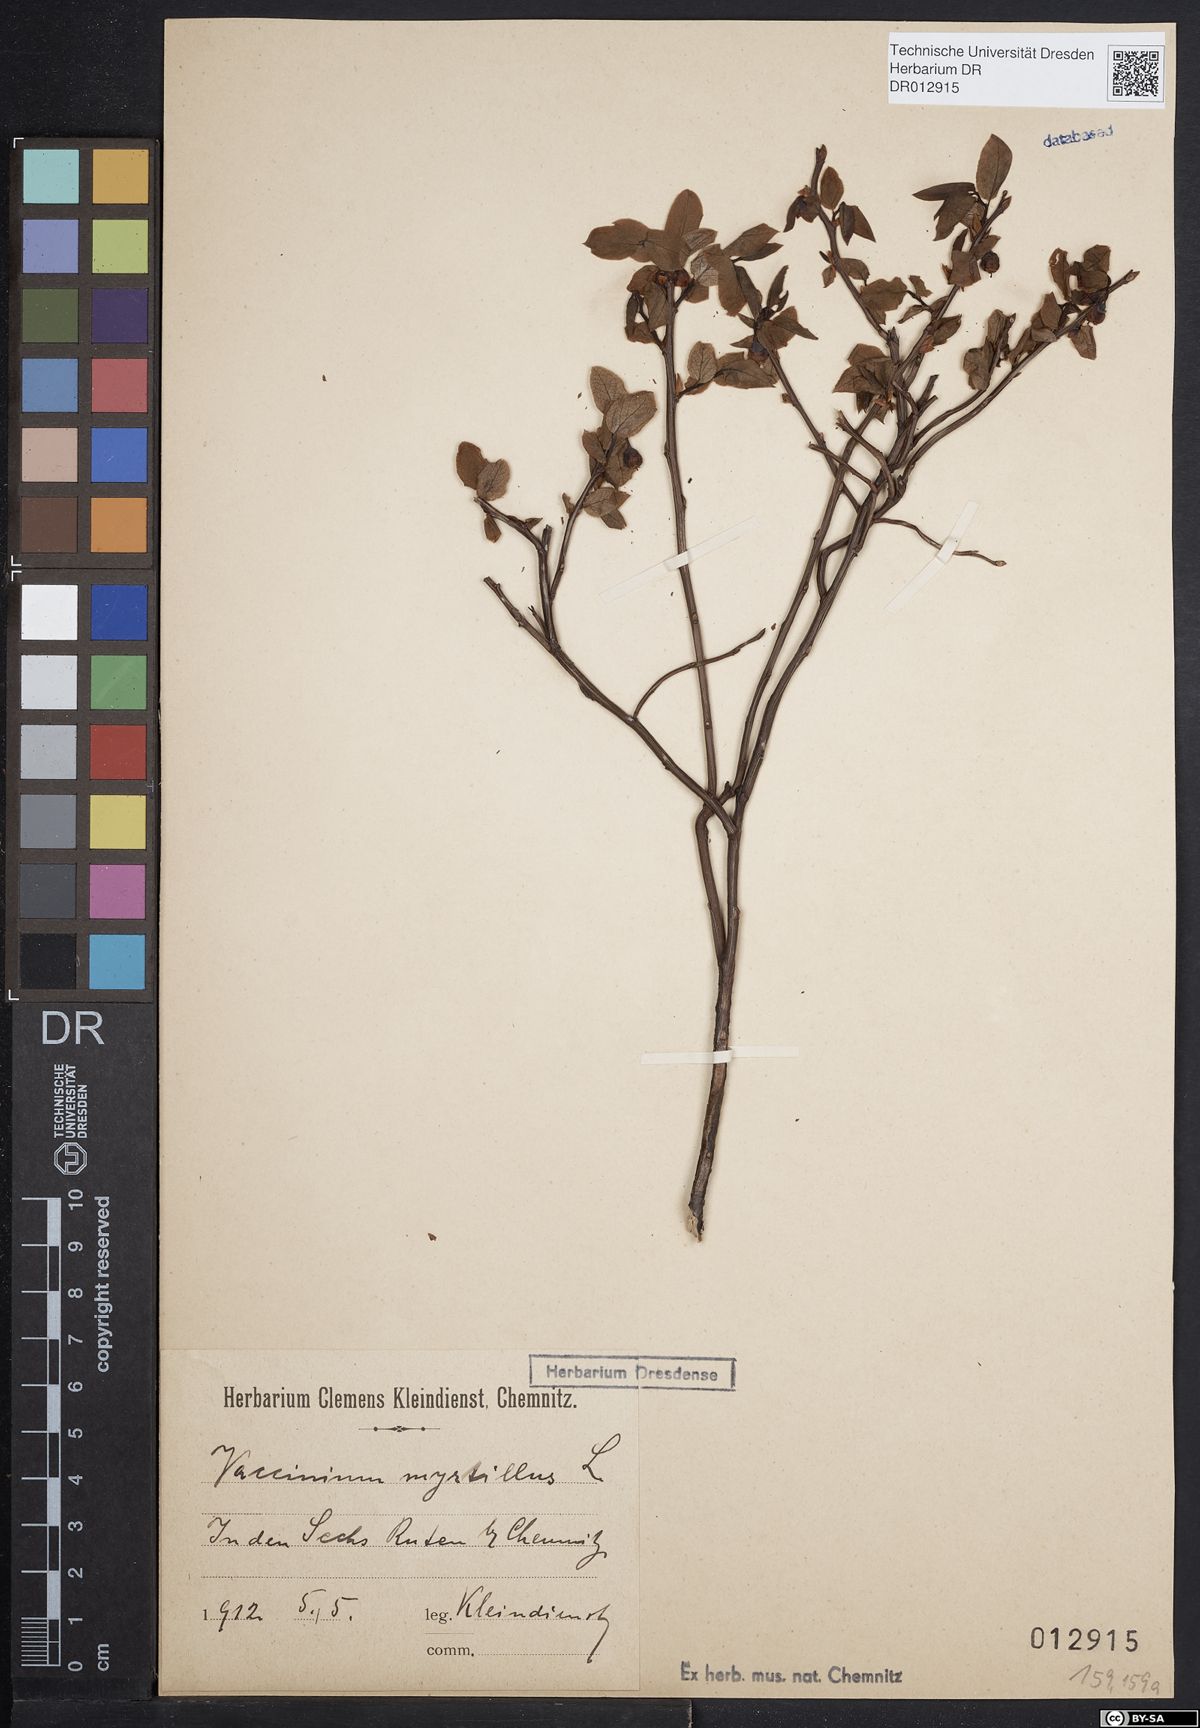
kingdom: Plantae
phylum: Tracheophyta
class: Magnoliopsida
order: Ericales
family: Ericaceae
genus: Vaccinium
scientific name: Vaccinium myrtillus
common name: Bilberry
